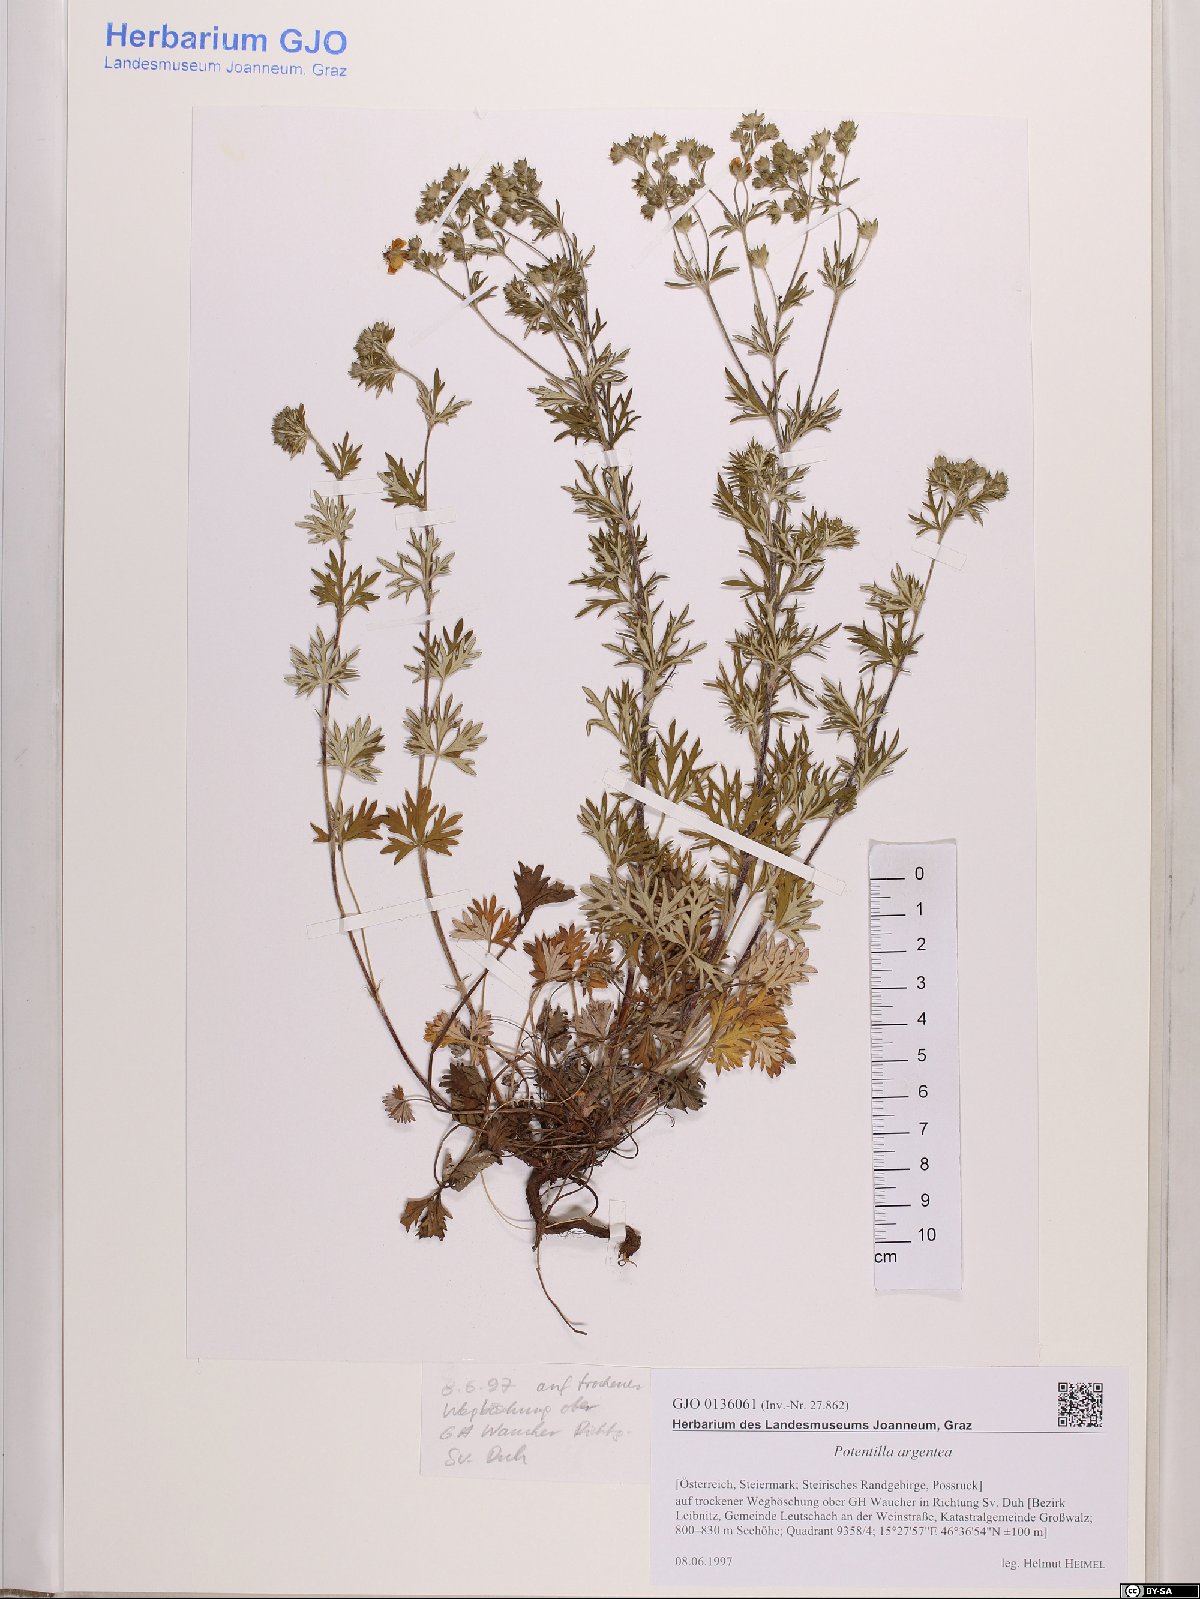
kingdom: Plantae
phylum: Tracheophyta
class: Magnoliopsida
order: Rosales
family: Rosaceae
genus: Potentilla
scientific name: Potentilla argentea
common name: Hoary cinquefoil
